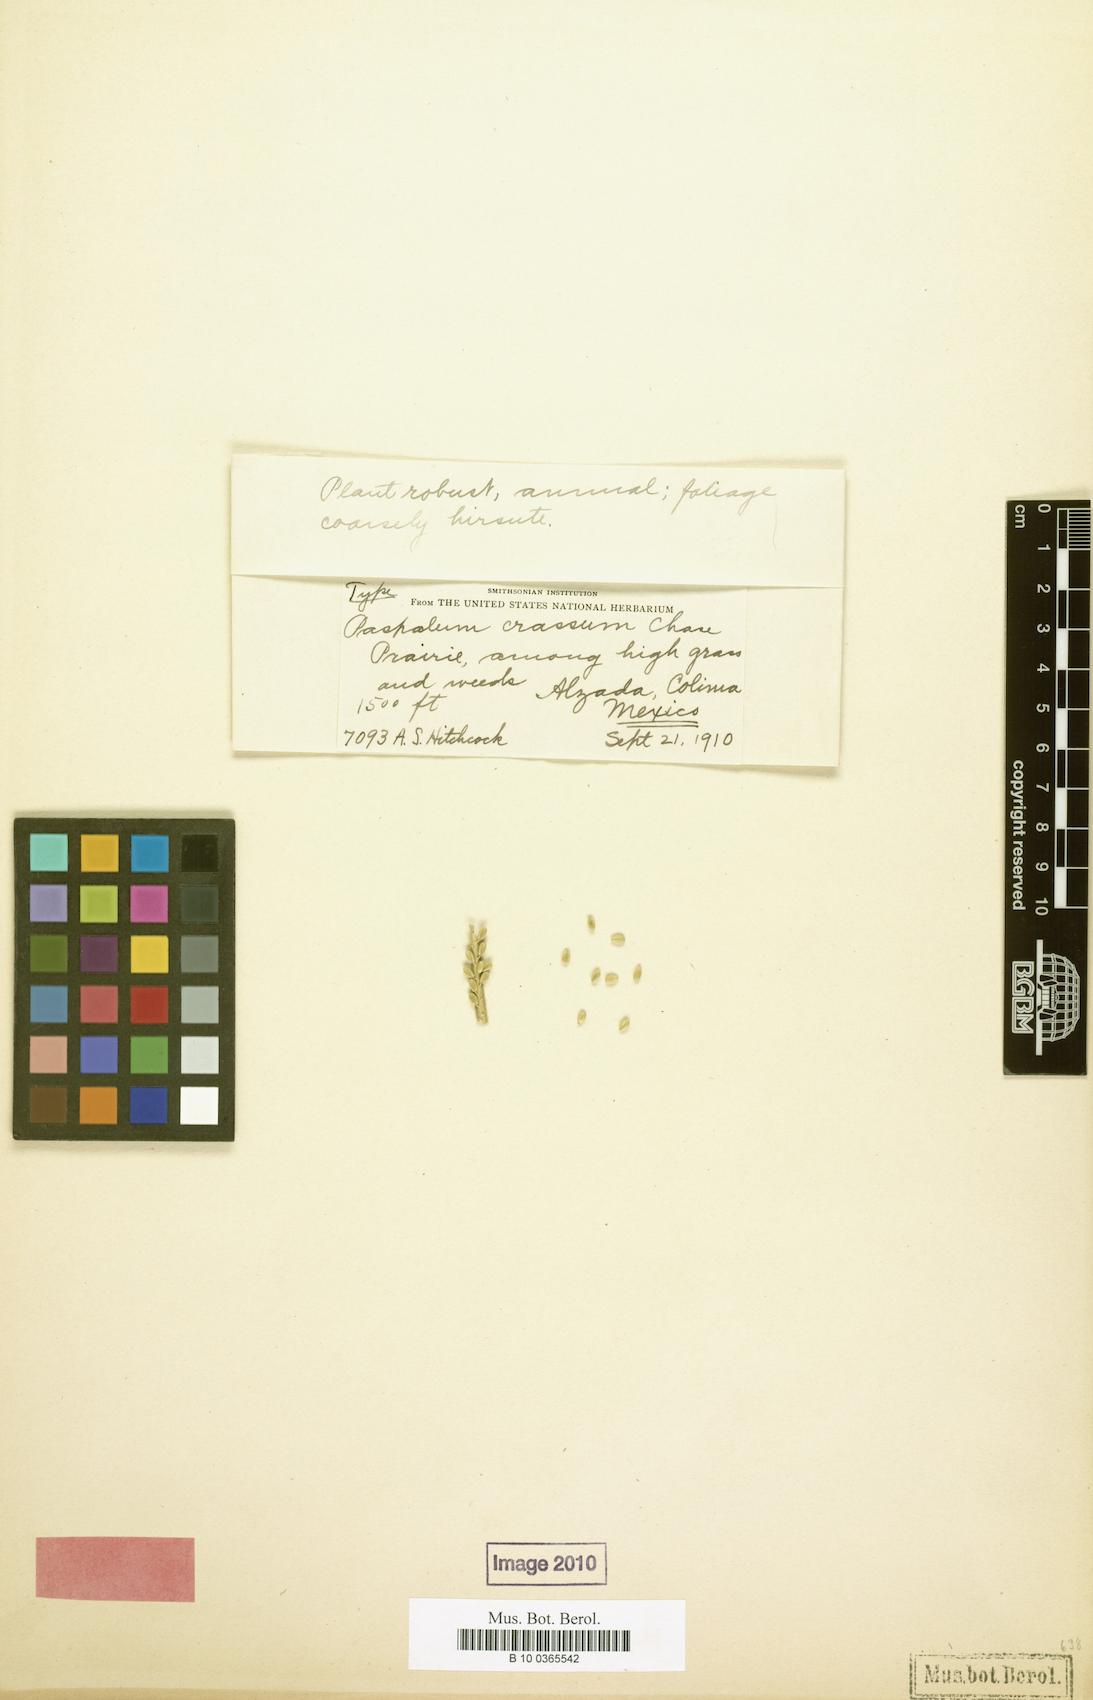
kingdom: Plantae
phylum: Tracheophyta
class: Liliopsida
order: Poales
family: Poaceae
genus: Paspalum
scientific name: Paspalum crassum
